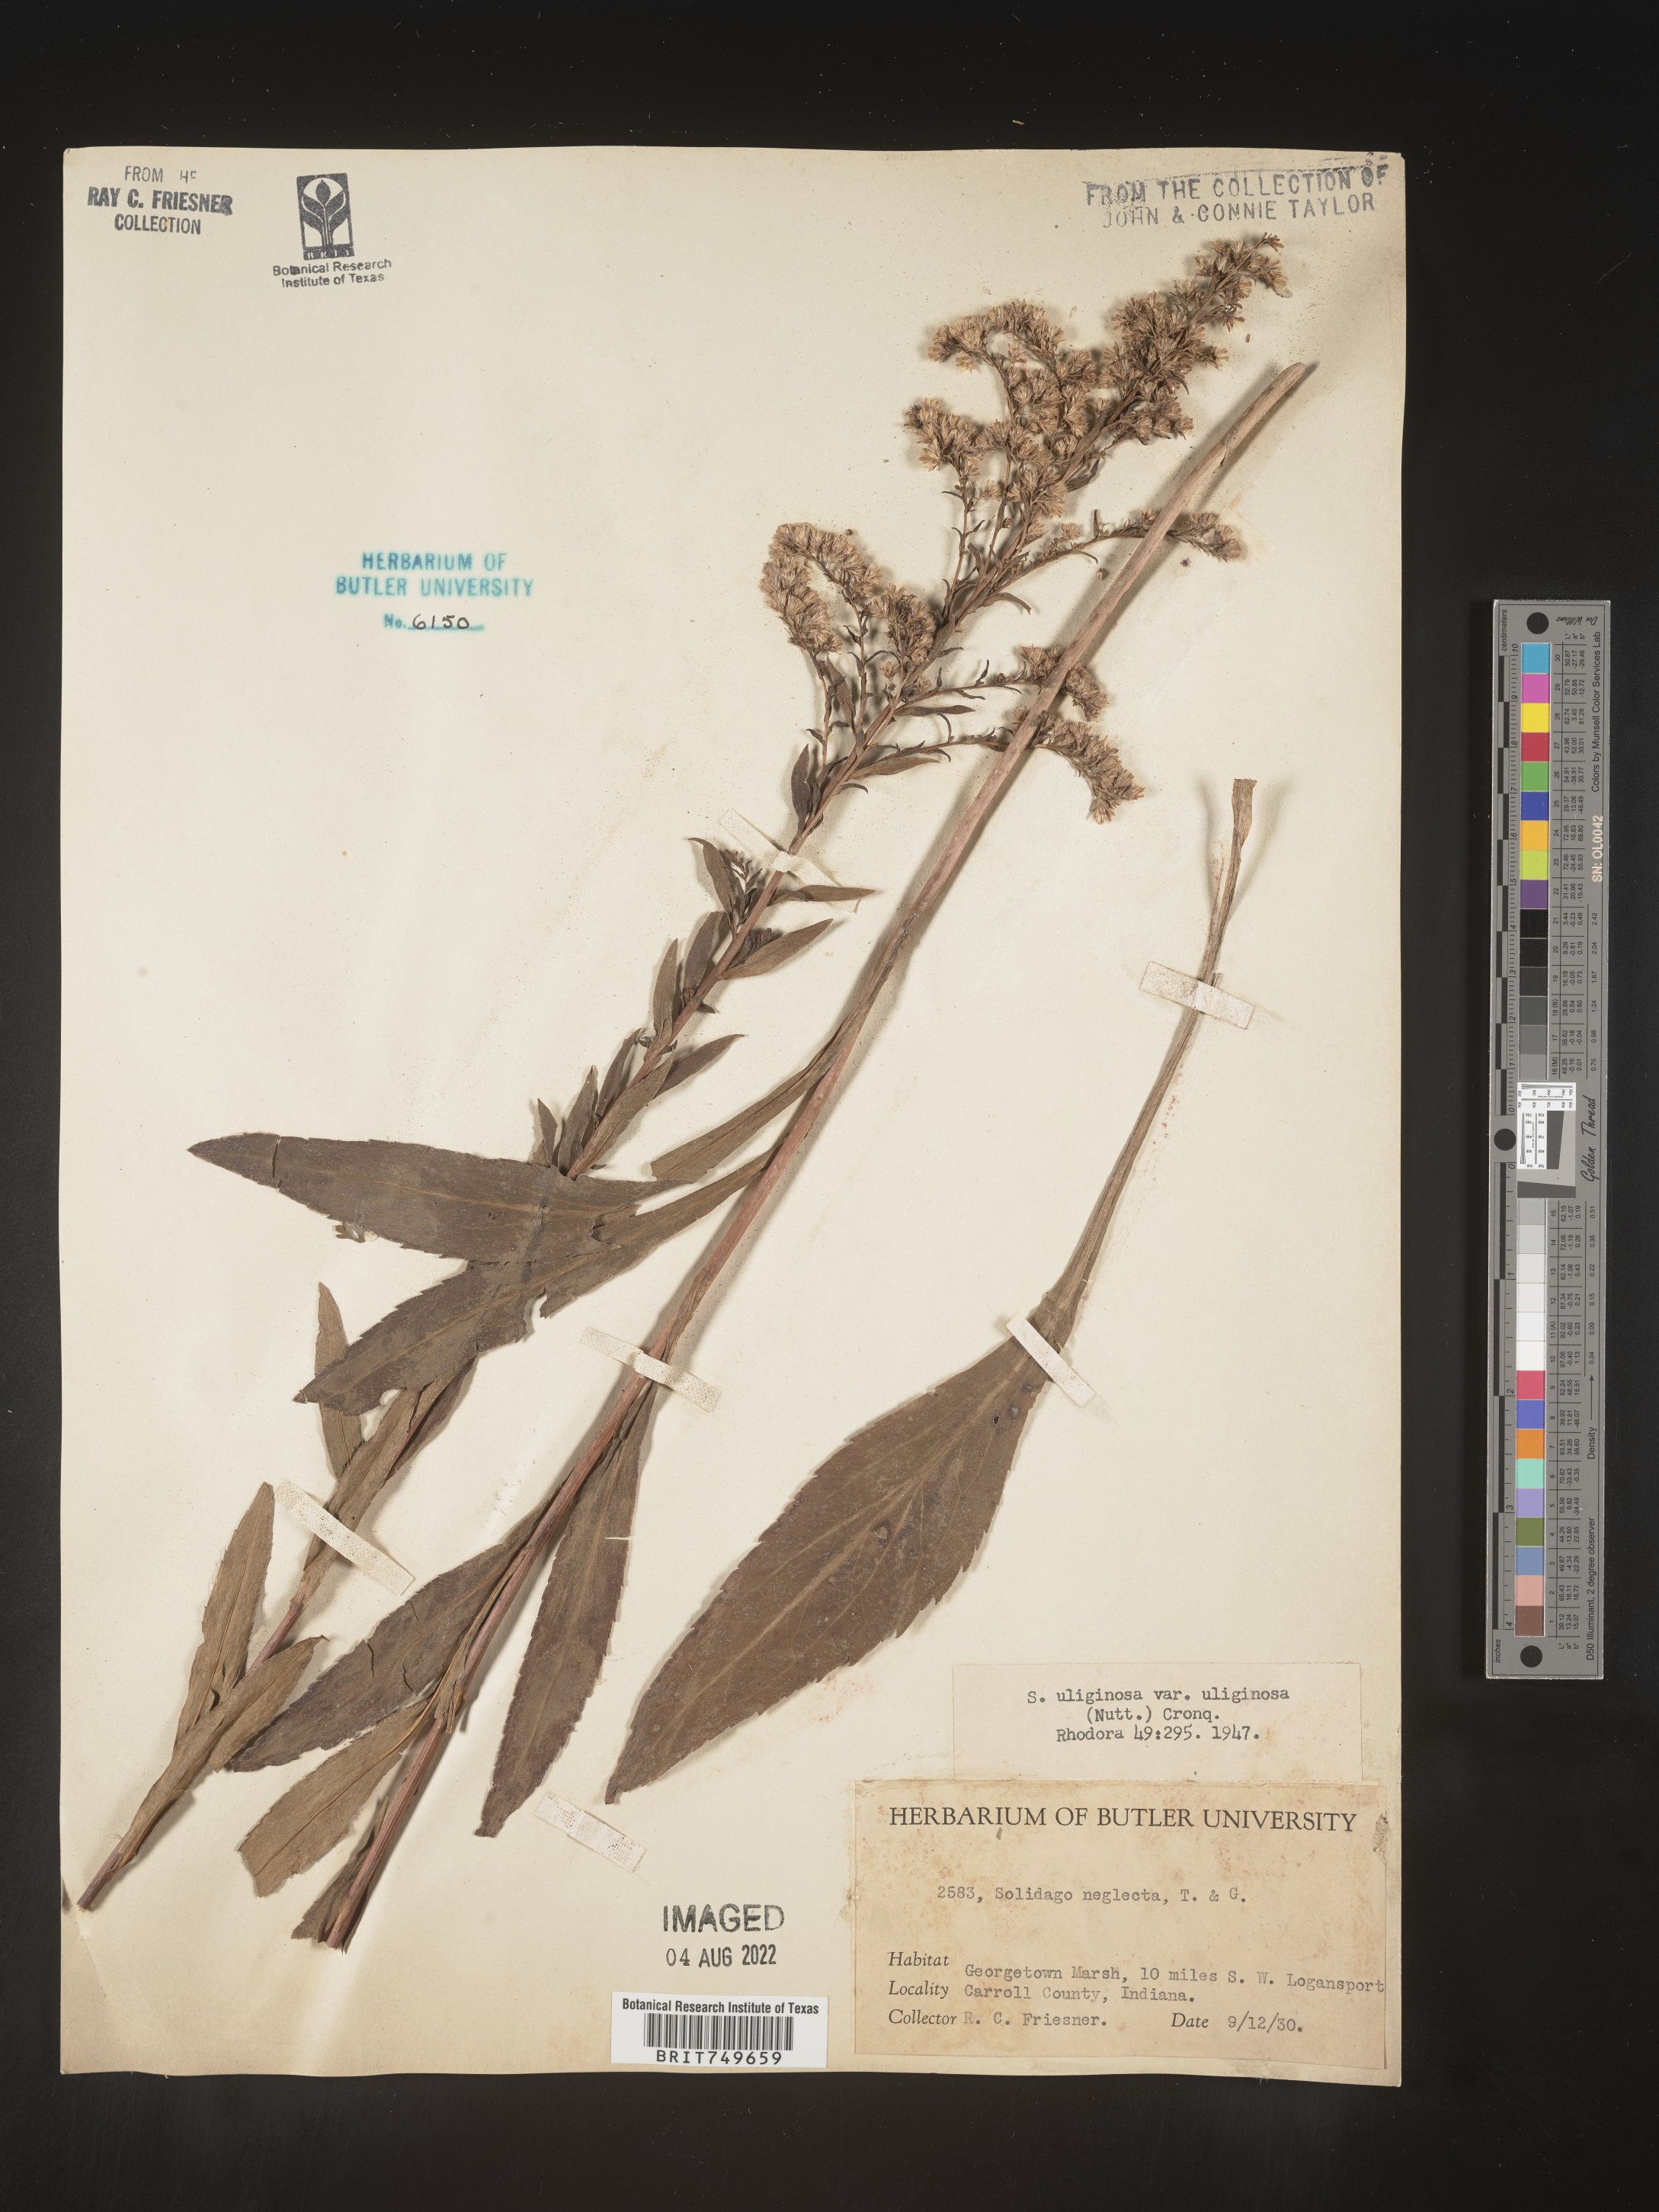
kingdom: Plantae
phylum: Tracheophyta
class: Magnoliopsida
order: Asterales
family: Asteraceae
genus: Solidago
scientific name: Solidago uliginosa
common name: Bog goldenrod
